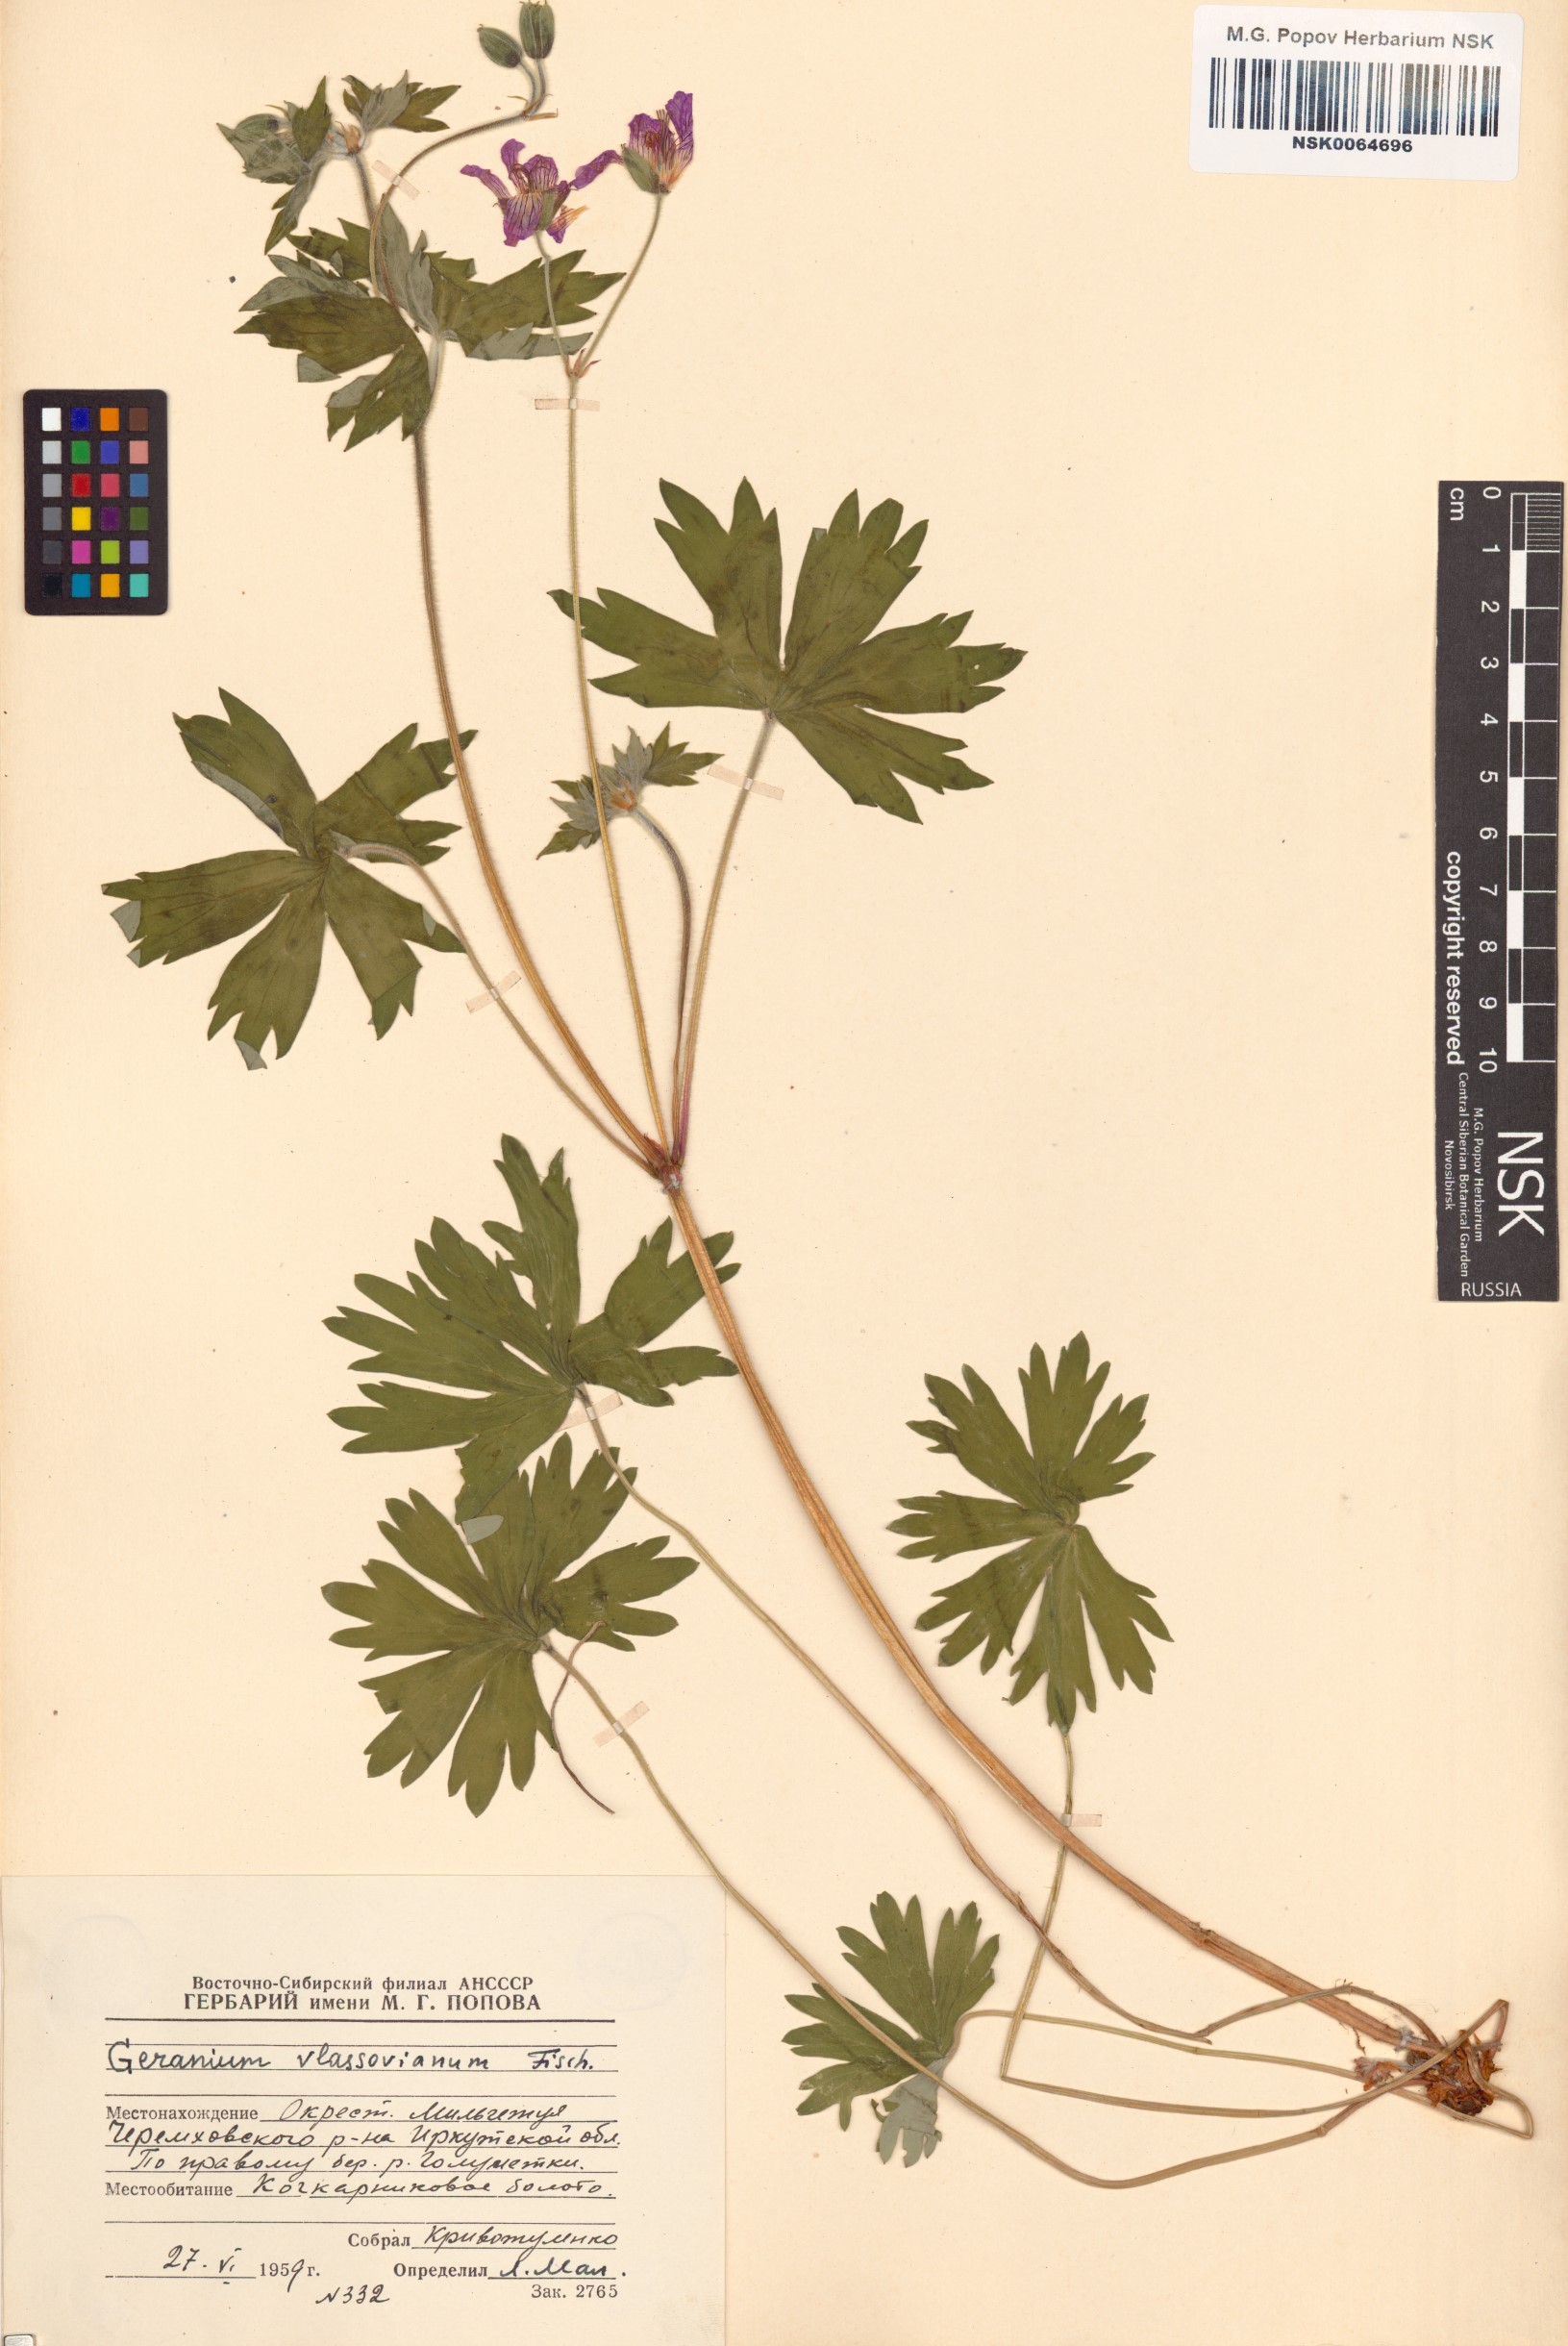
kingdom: Plantae
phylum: Tracheophyta
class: Magnoliopsida
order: Geraniales
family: Geraniaceae
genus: Geranium
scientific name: Geranium wlassovianum
